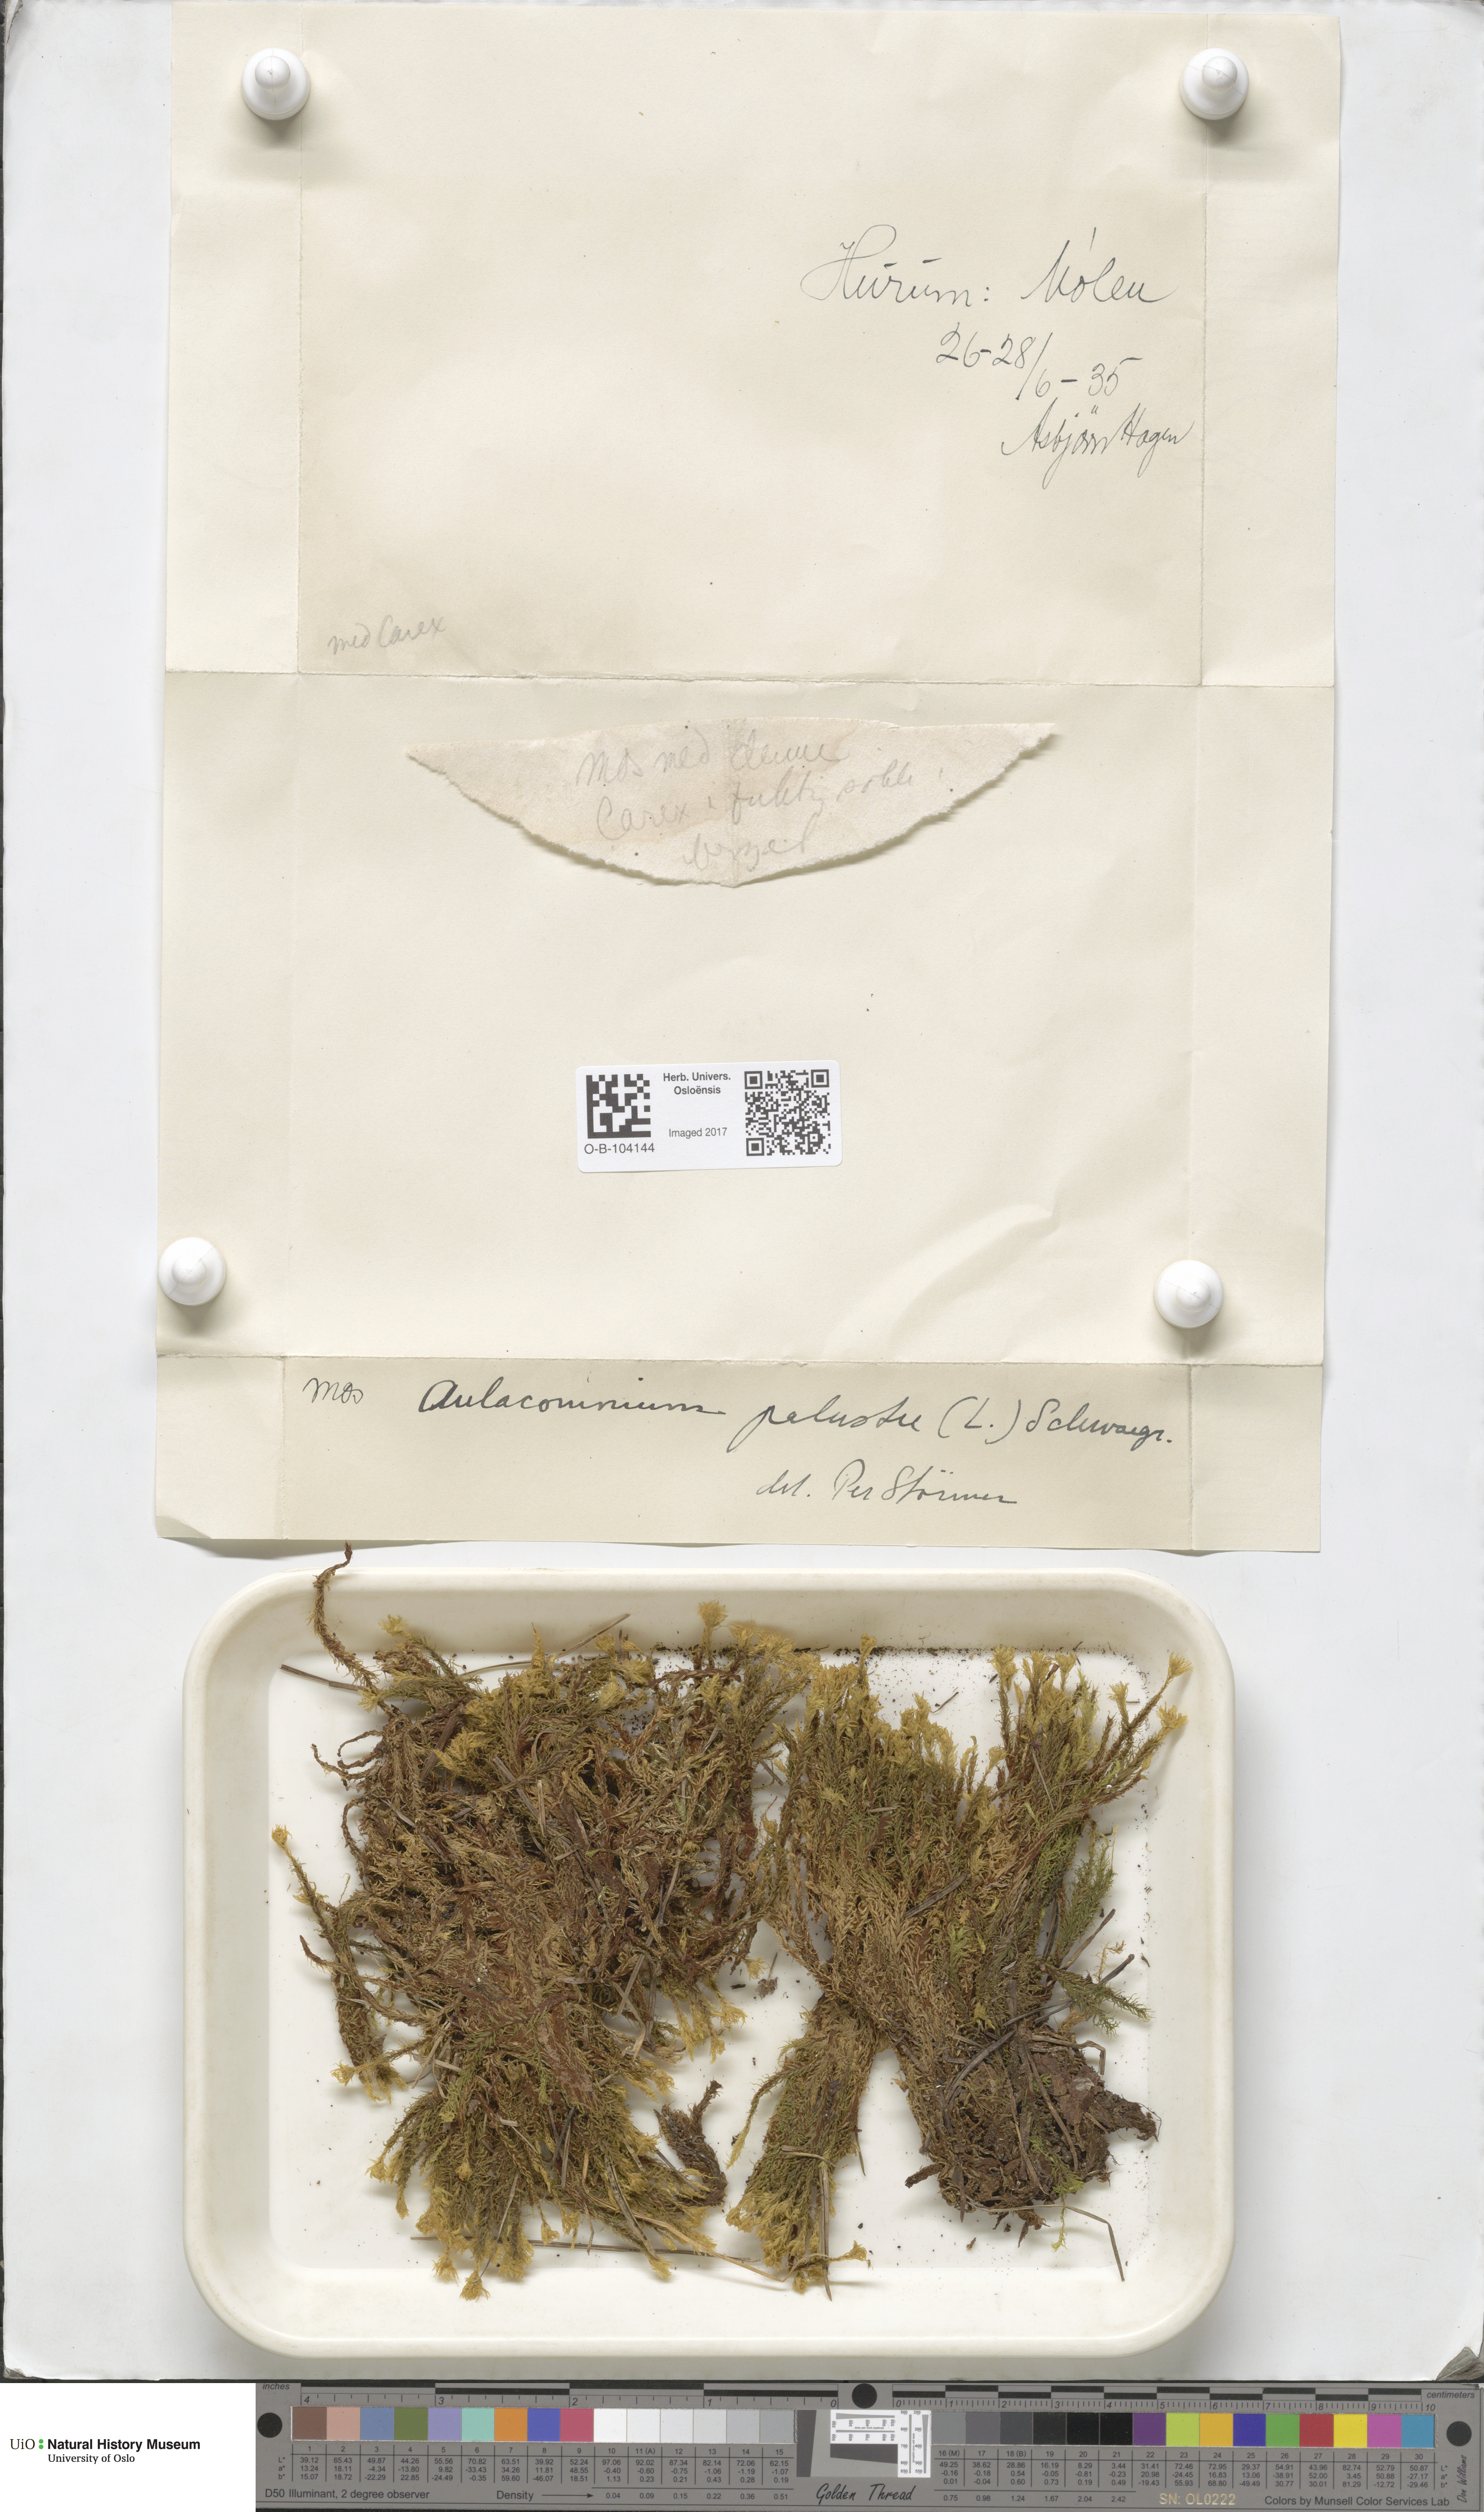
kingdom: Plantae
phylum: Bryophyta
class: Bryopsida
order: Aulacomniales
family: Aulacomniaceae
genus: Aulacomnium
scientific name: Aulacomnium palustre
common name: Bog groove-moss
